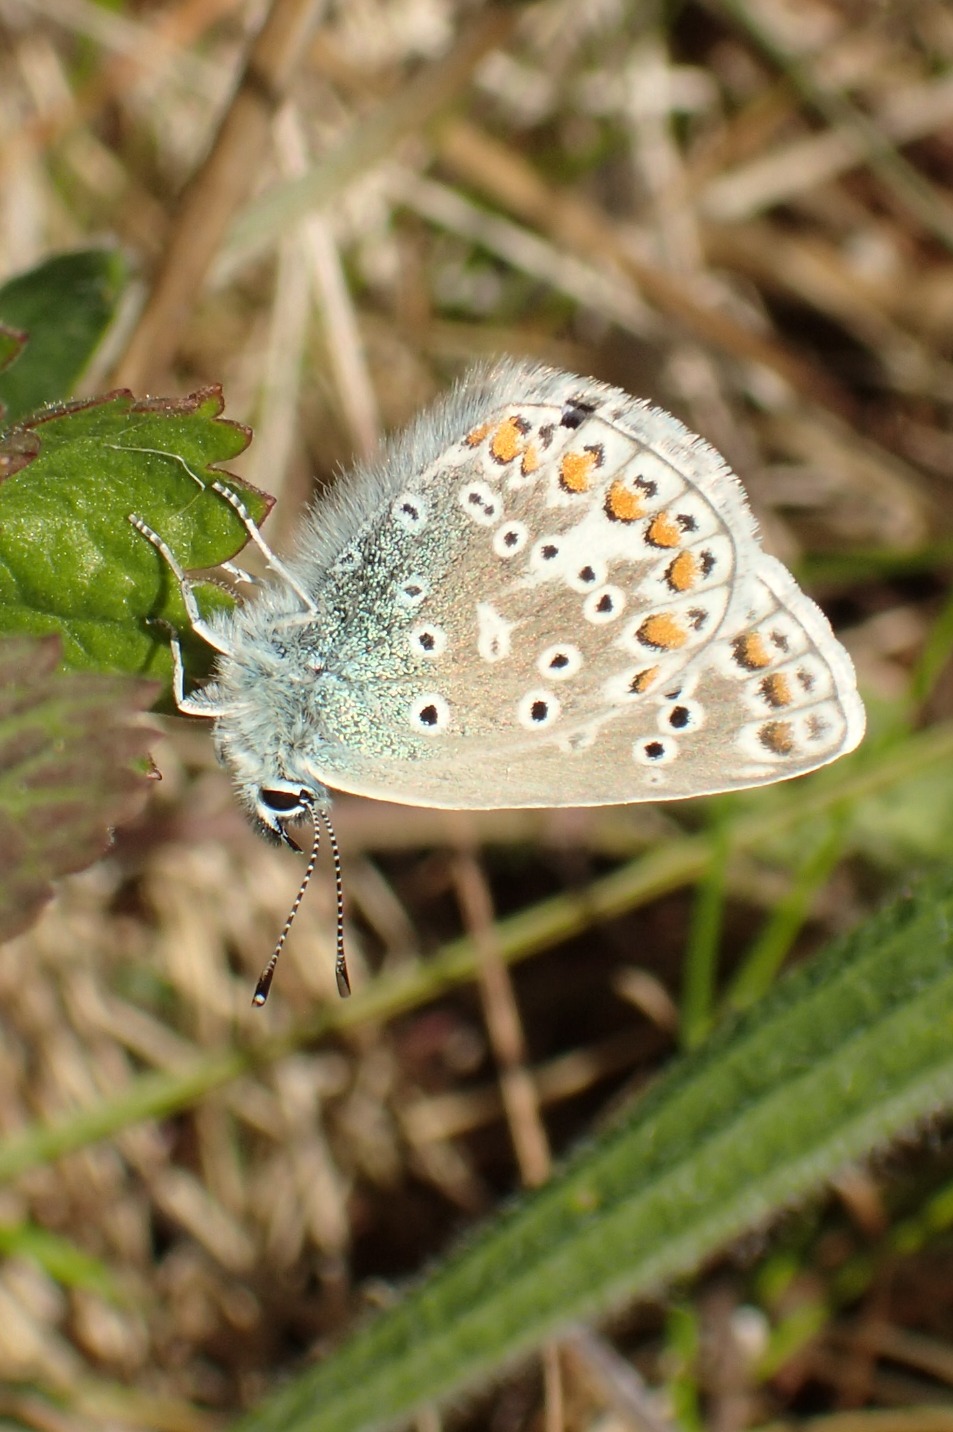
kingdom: Animalia
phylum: Arthropoda
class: Insecta
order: Lepidoptera
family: Lycaenidae
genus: Polyommatus
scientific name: Polyommatus icarus
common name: Almindelig blåfugl
